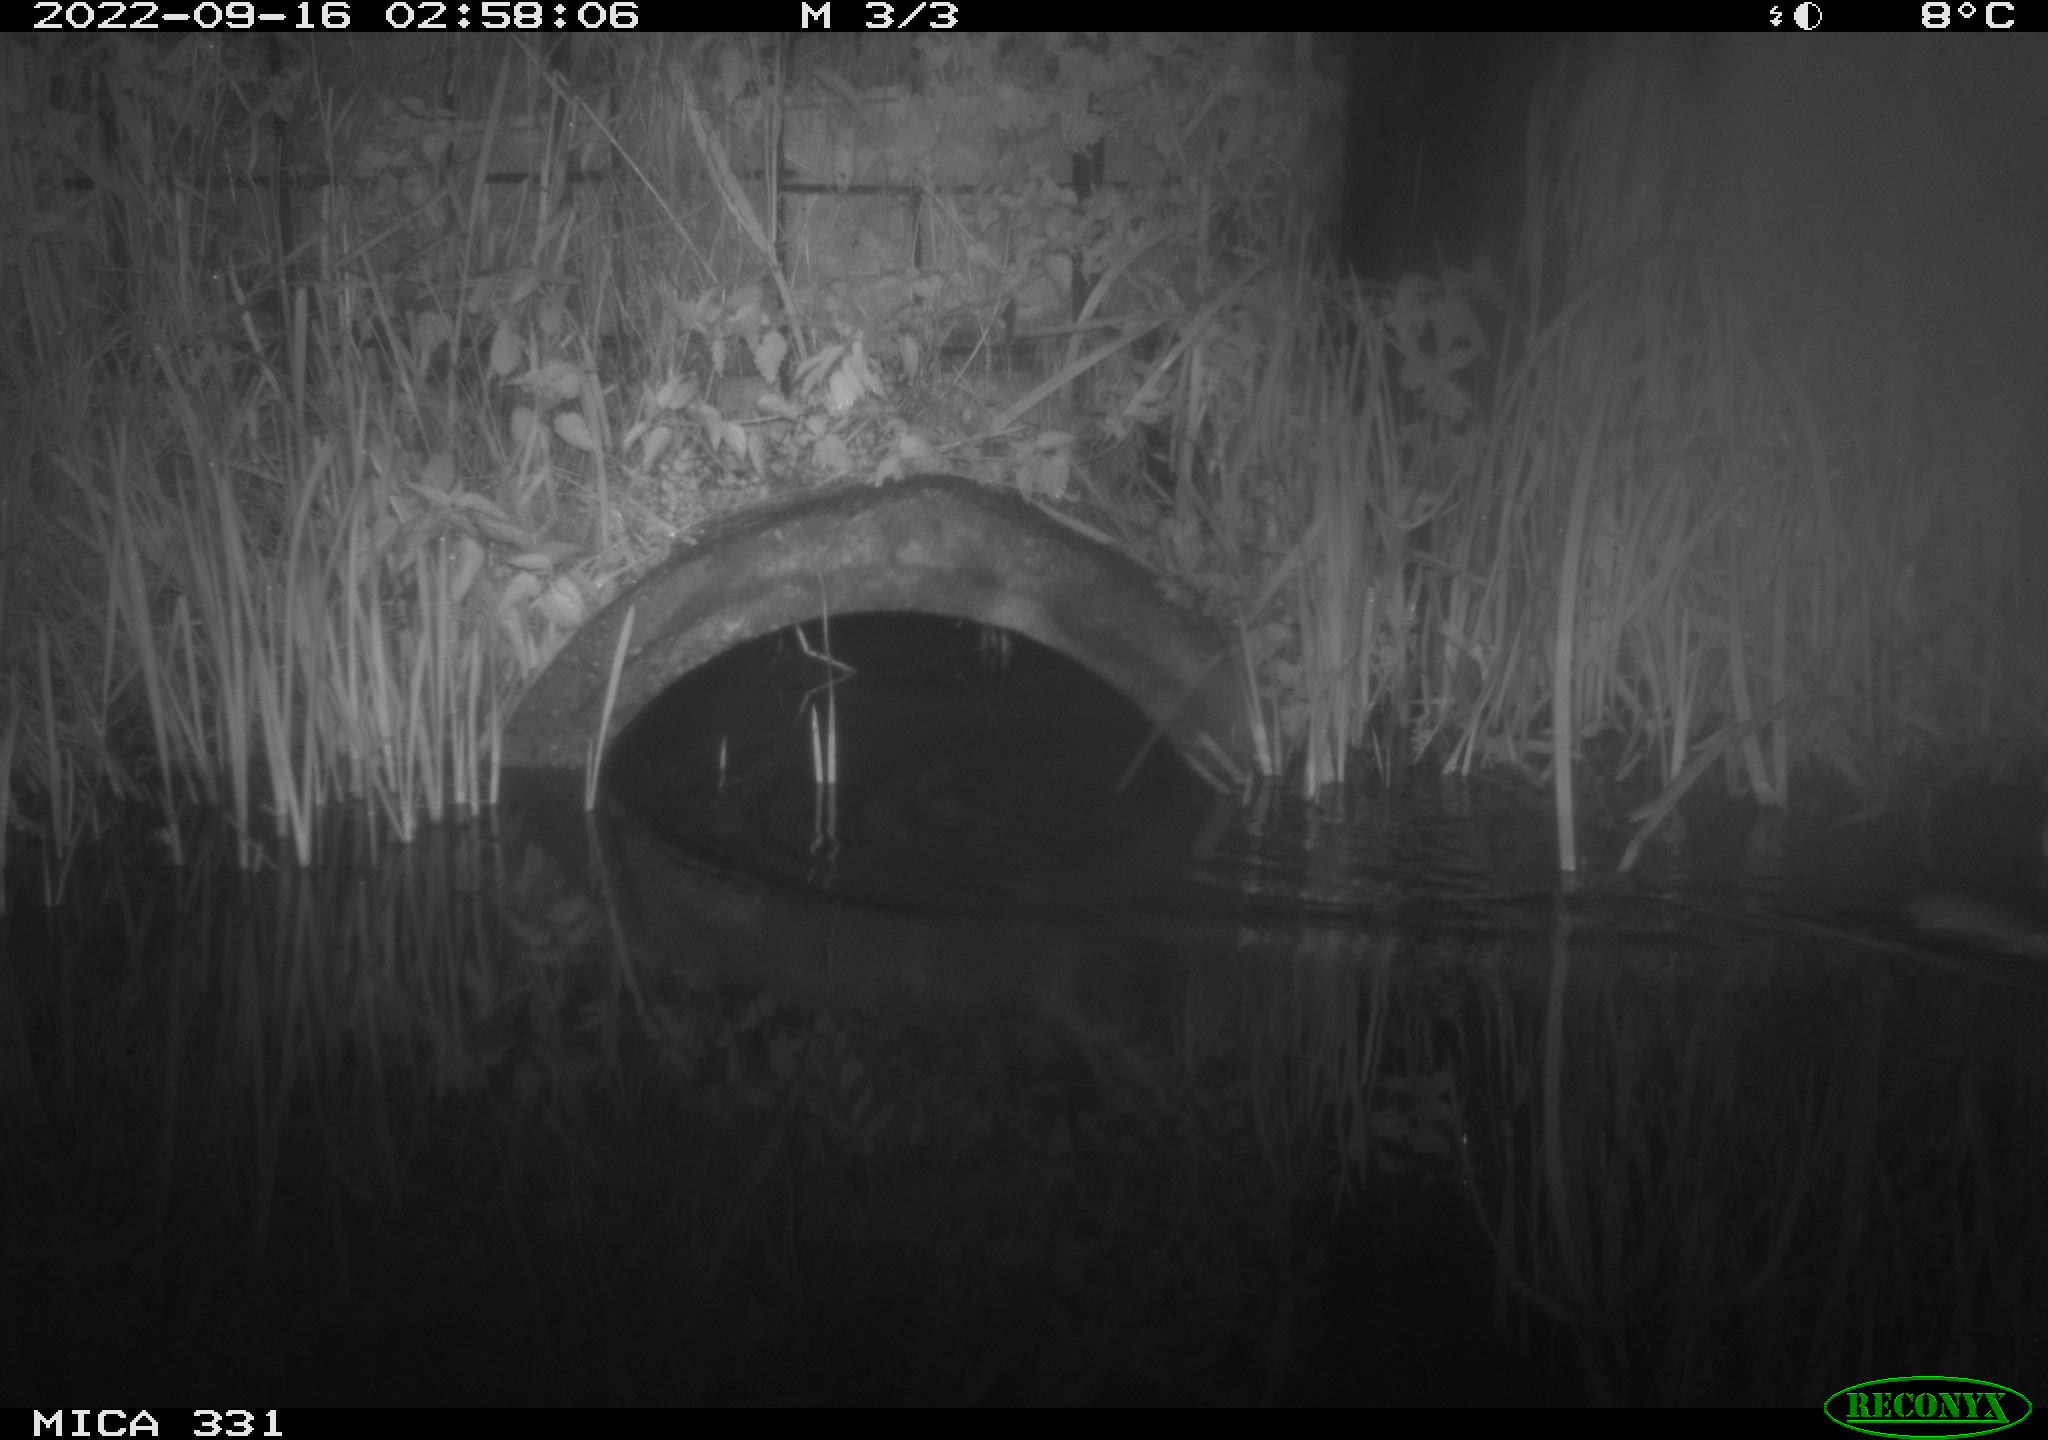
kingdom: Animalia
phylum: Chordata
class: Mammalia
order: Rodentia
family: Muridae
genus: Rattus
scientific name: Rattus norvegicus
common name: Brown rat
